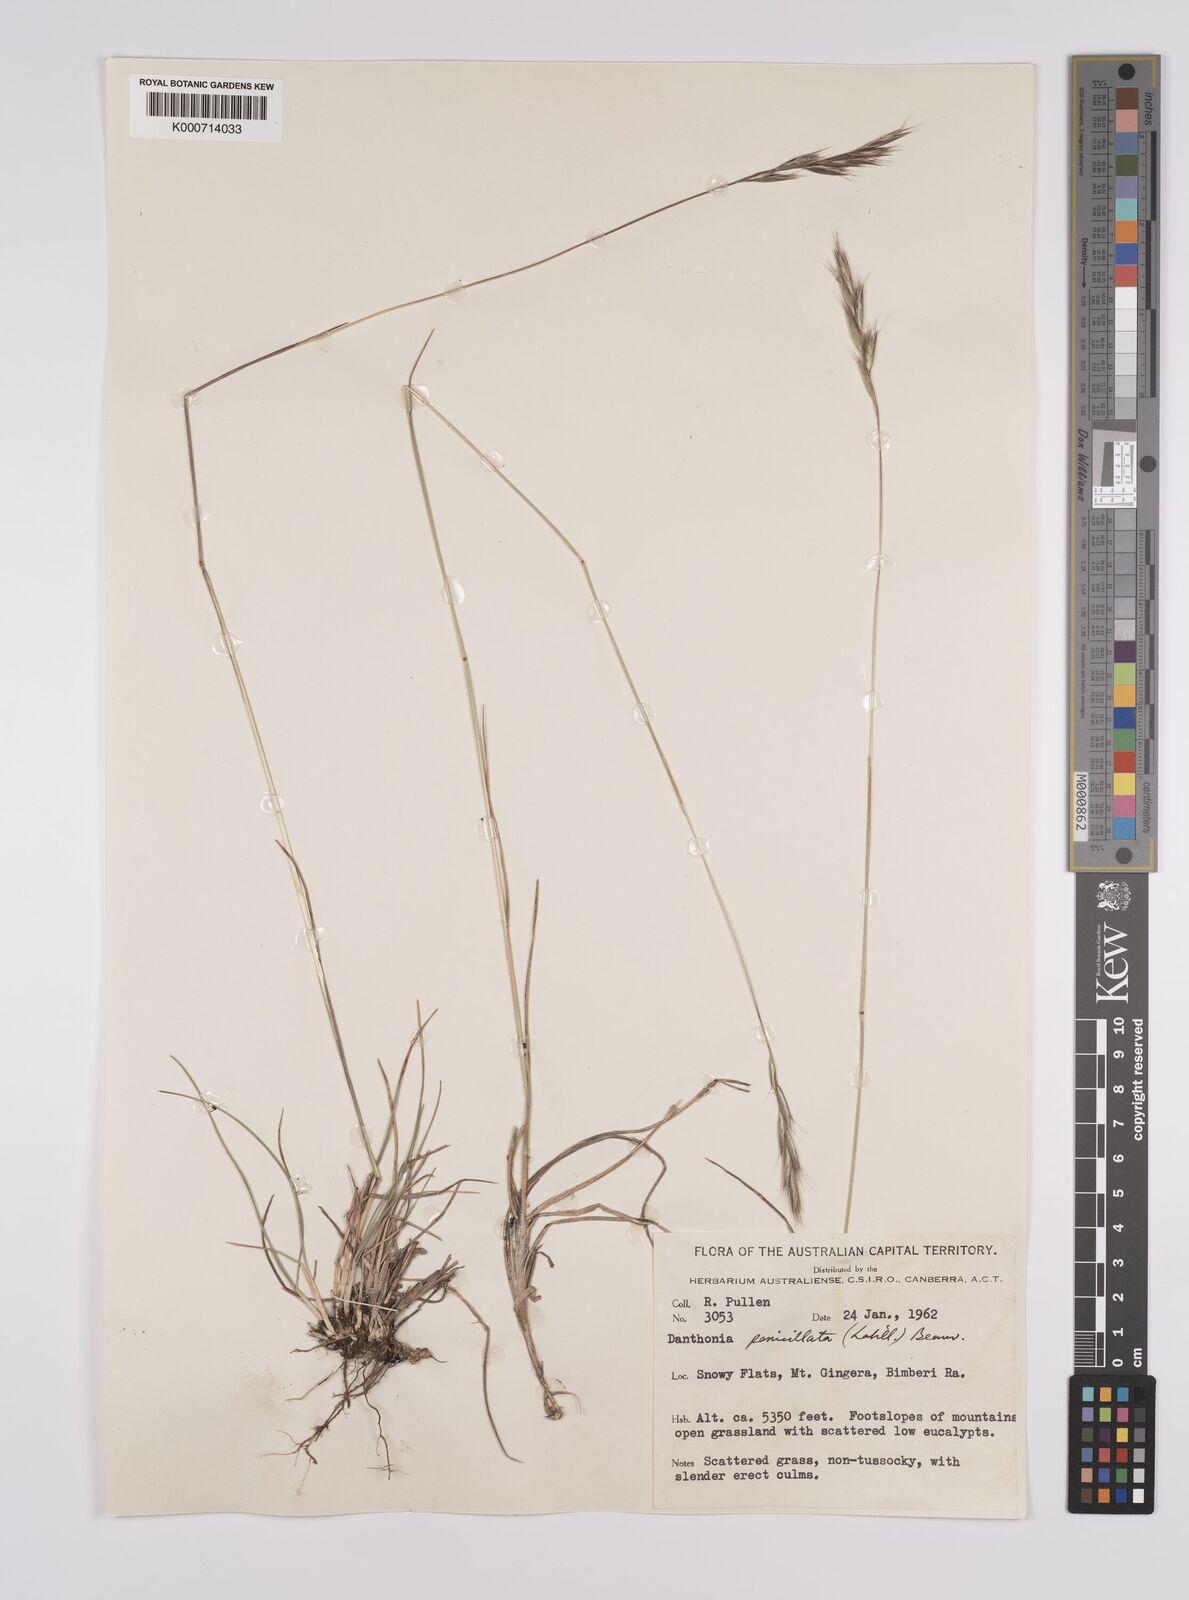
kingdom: Plantae
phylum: Tracheophyta
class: Liliopsida
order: Poales
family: Poaceae
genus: Rytidosperma
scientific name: Rytidosperma penicillatum
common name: Hairy wallaby grass
